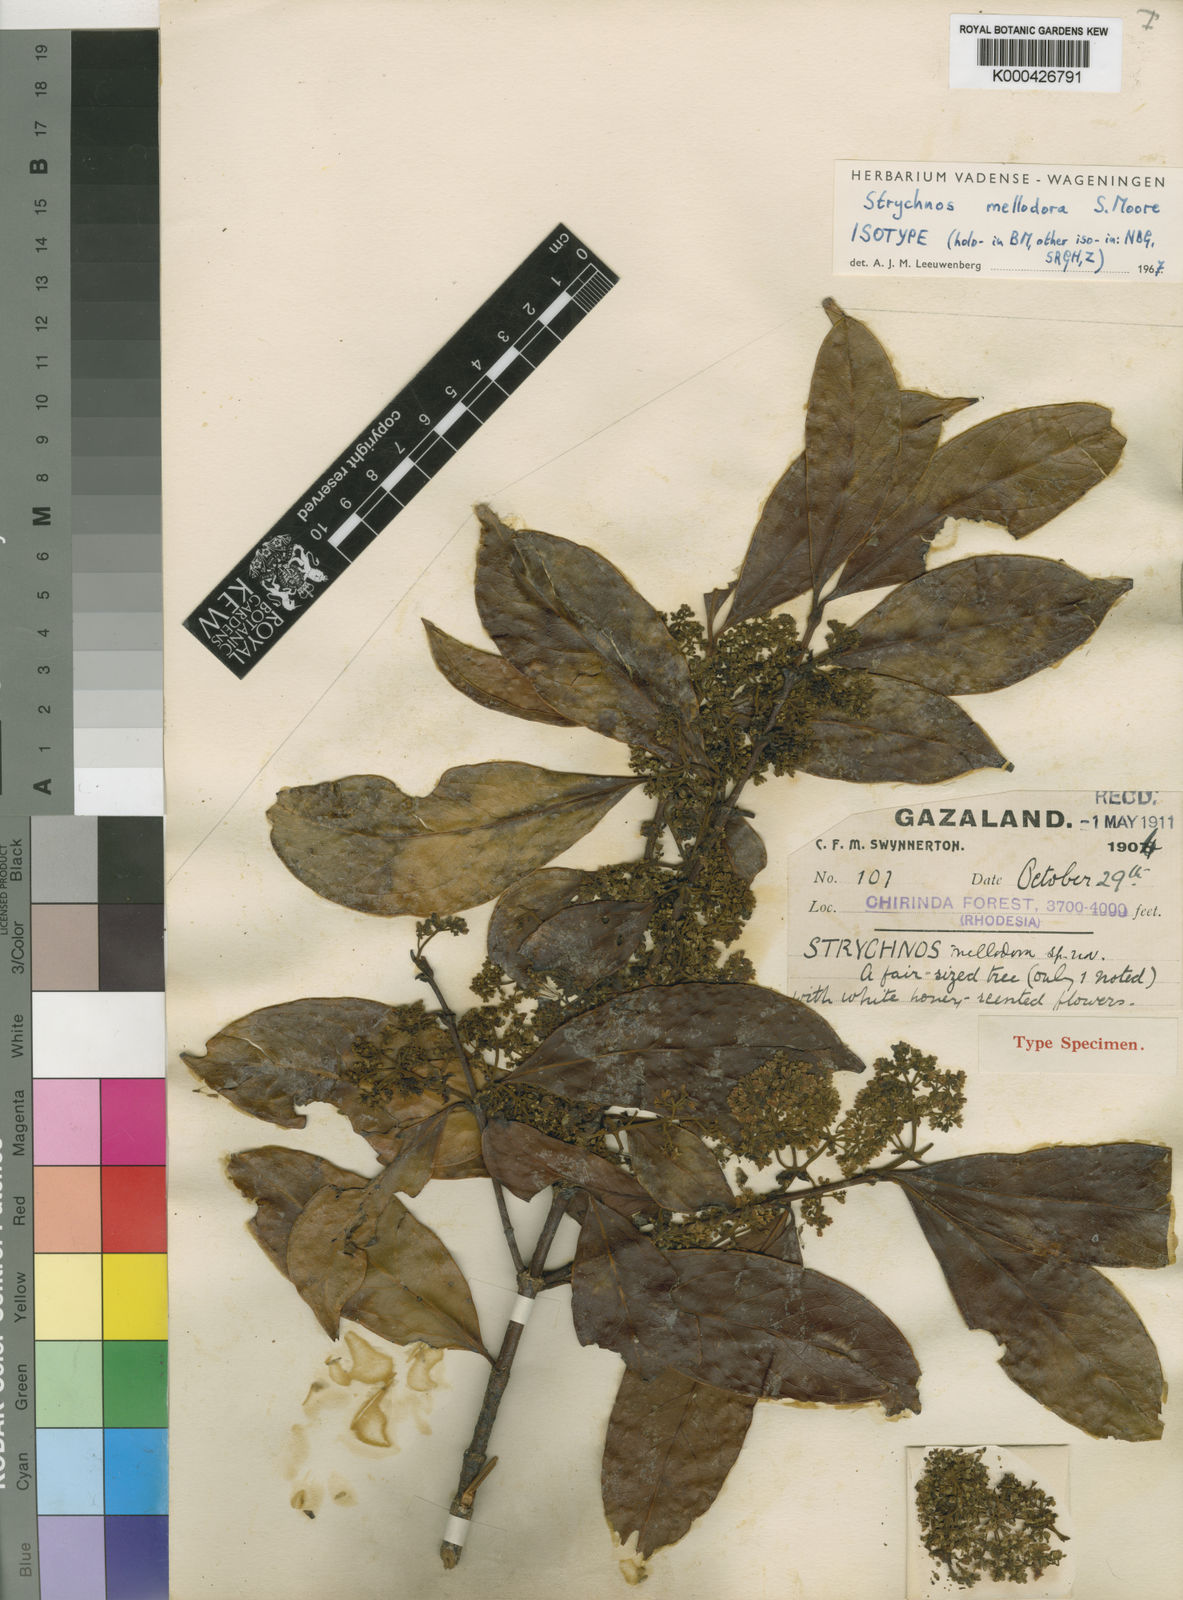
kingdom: Plantae
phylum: Tracheophyta
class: Magnoliopsida
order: Gentianales
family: Loganiaceae
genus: Strychnos
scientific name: Strychnos mellodora
